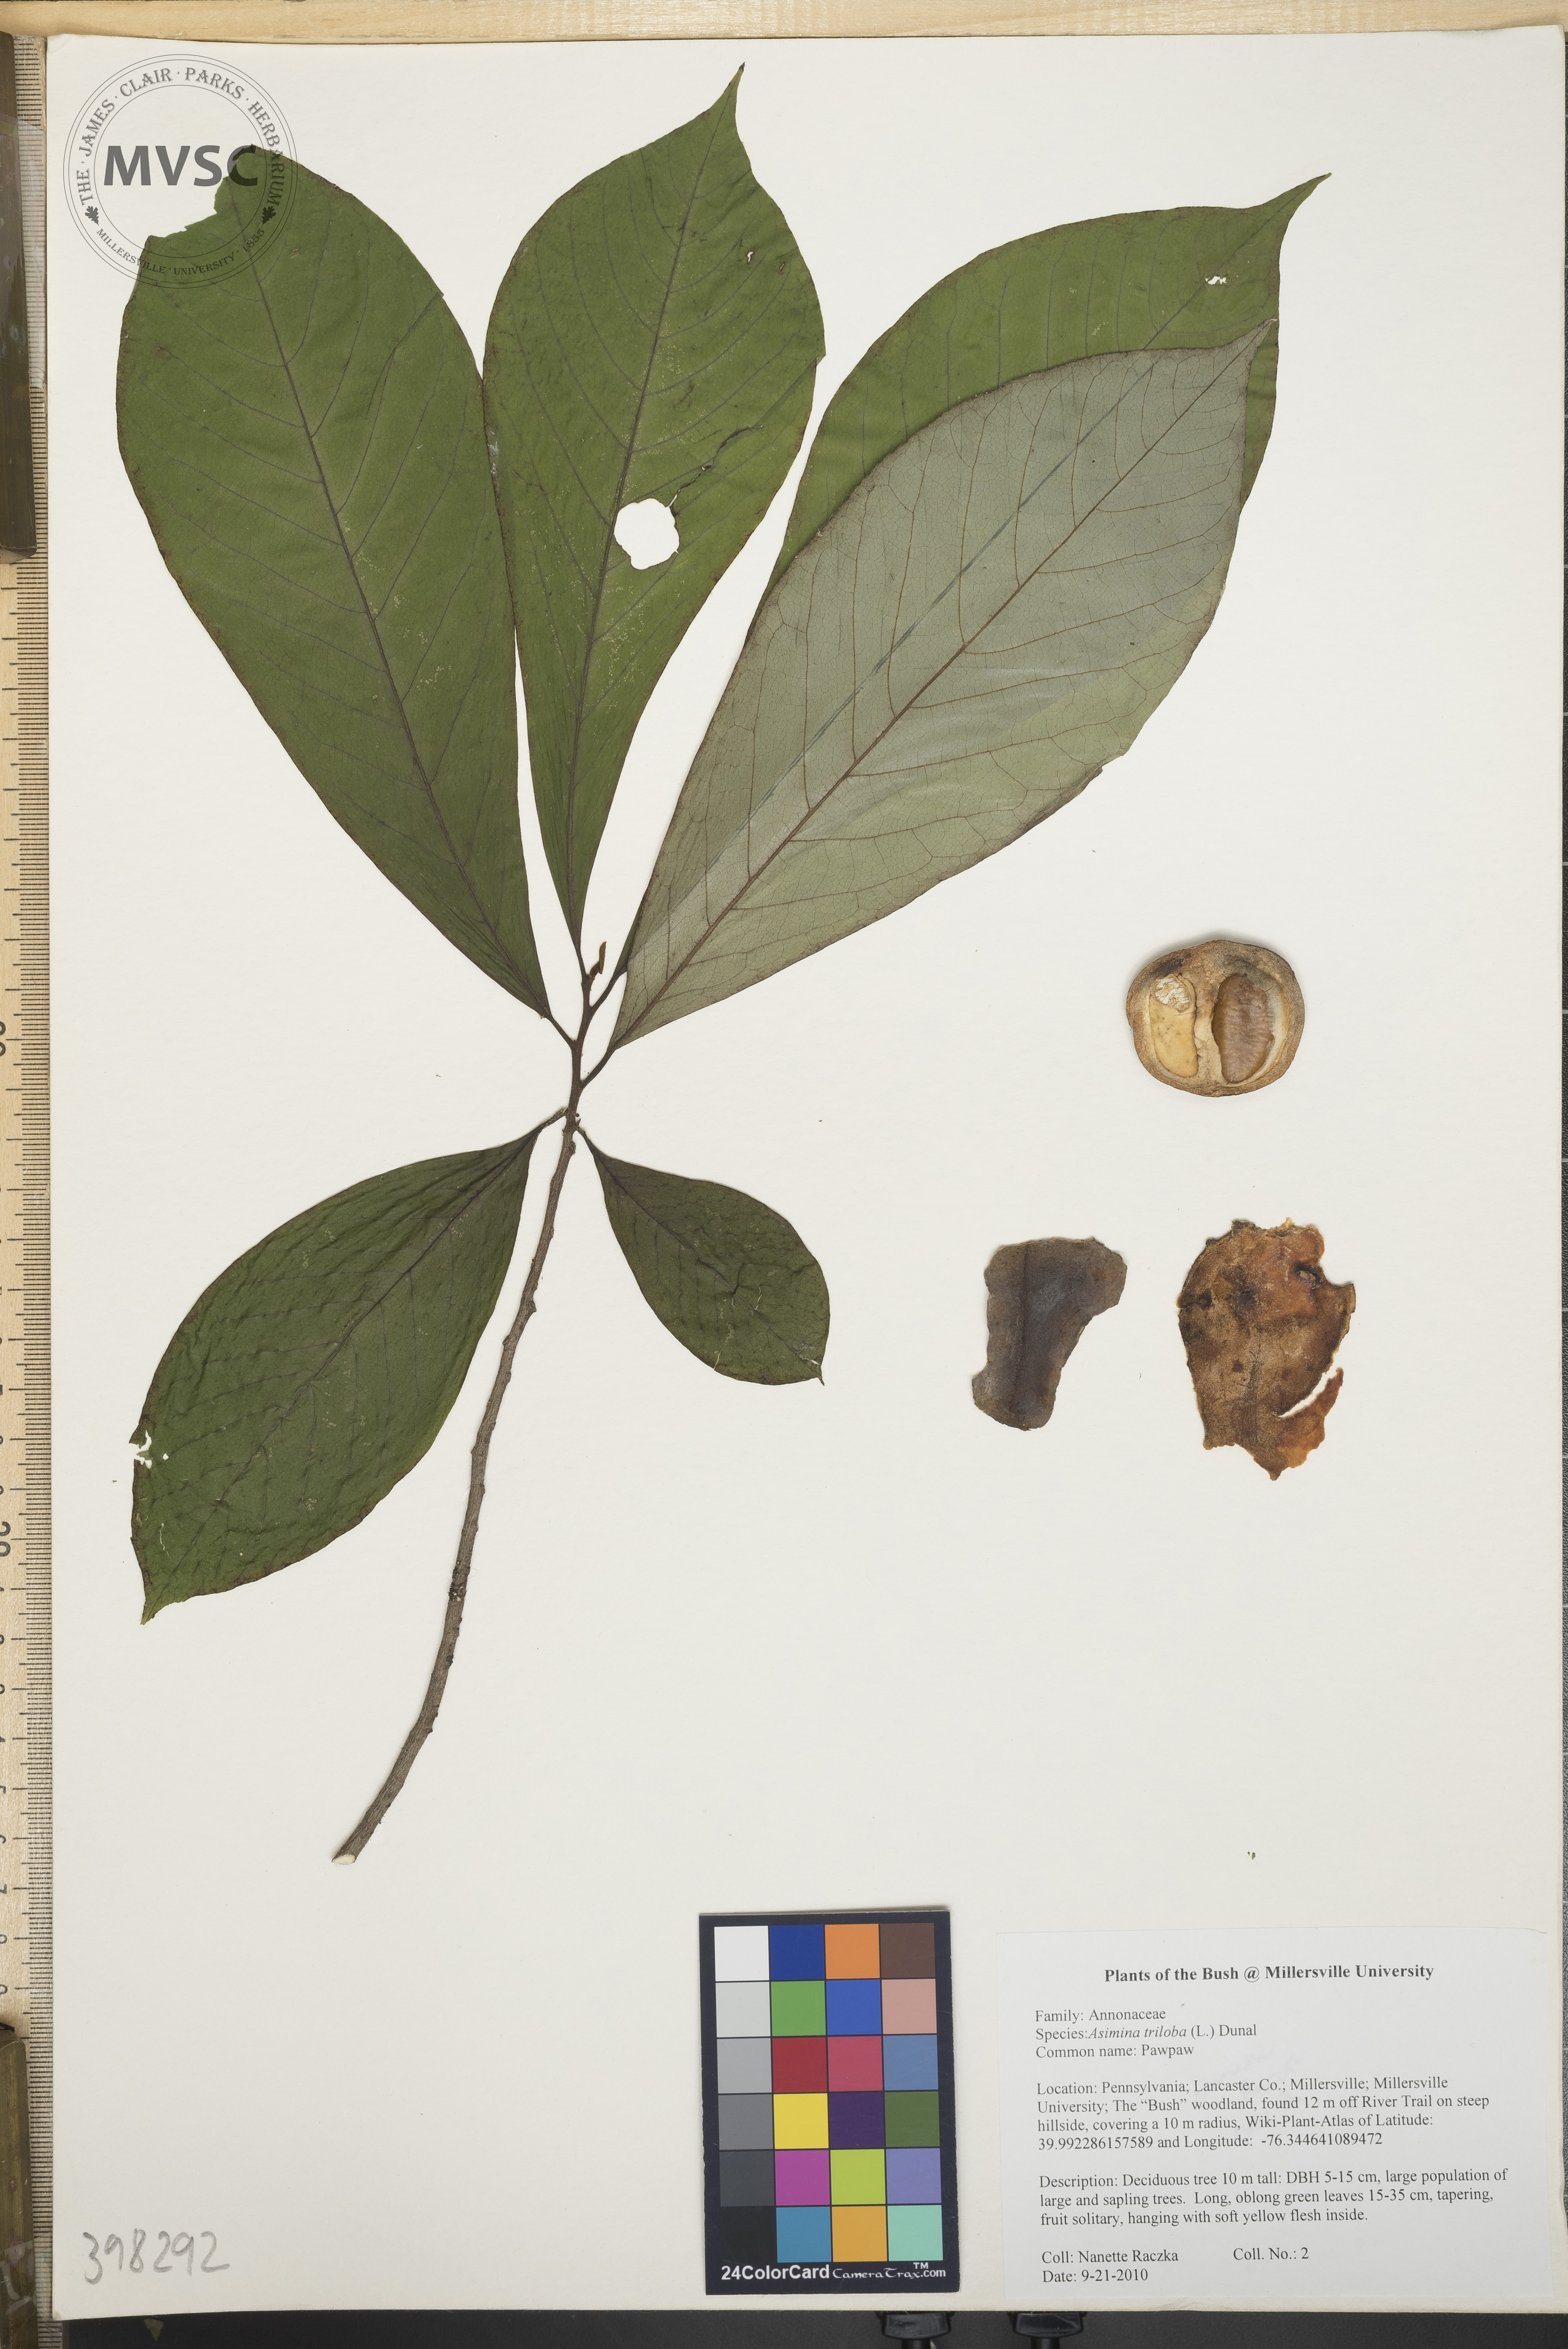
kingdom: Plantae
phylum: Tracheophyta
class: Magnoliopsida
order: Magnoliales
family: Annonaceae
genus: Asimina
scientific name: Asimina triloba
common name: Pawpaw
